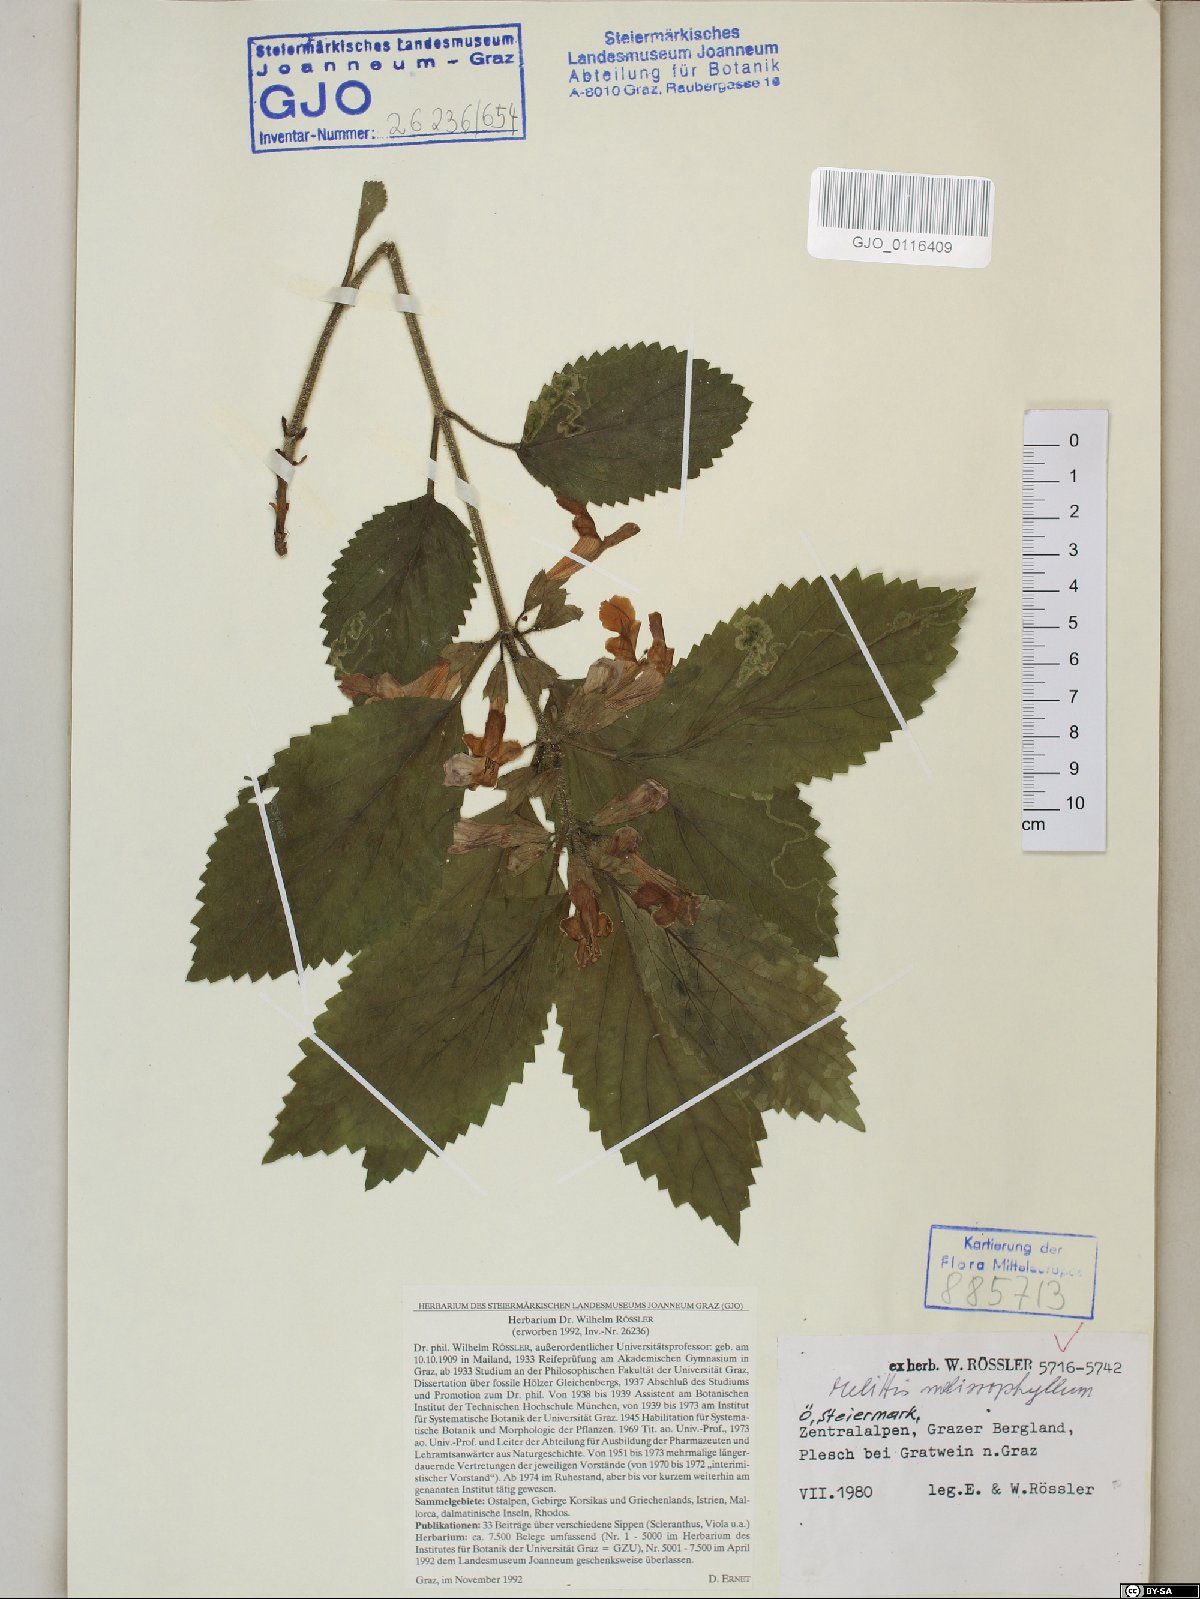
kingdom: Plantae
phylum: Tracheophyta
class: Magnoliopsida
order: Lamiales
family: Lamiaceae
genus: Melittis
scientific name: Melittis melissophyllum
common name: Bastard balm
